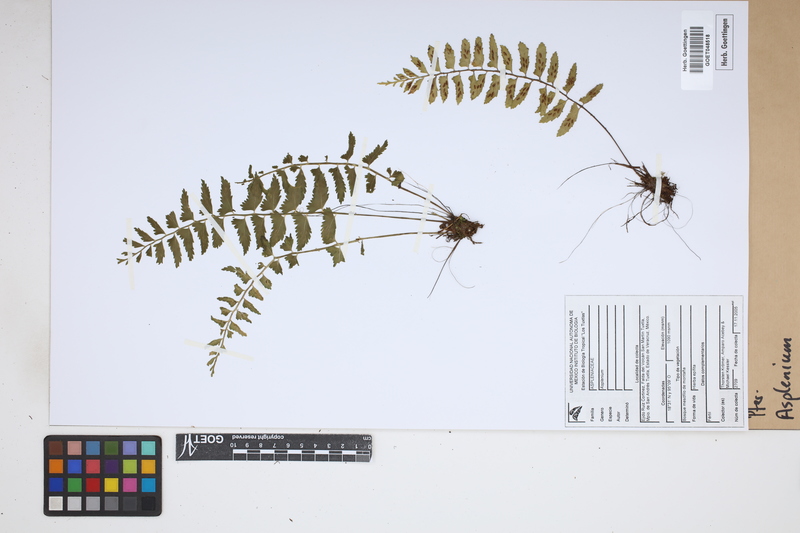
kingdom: Plantae
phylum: Tracheophyta
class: Polypodiopsida
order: Polypodiales
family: Aspleniaceae
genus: Asplenium
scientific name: Asplenium
